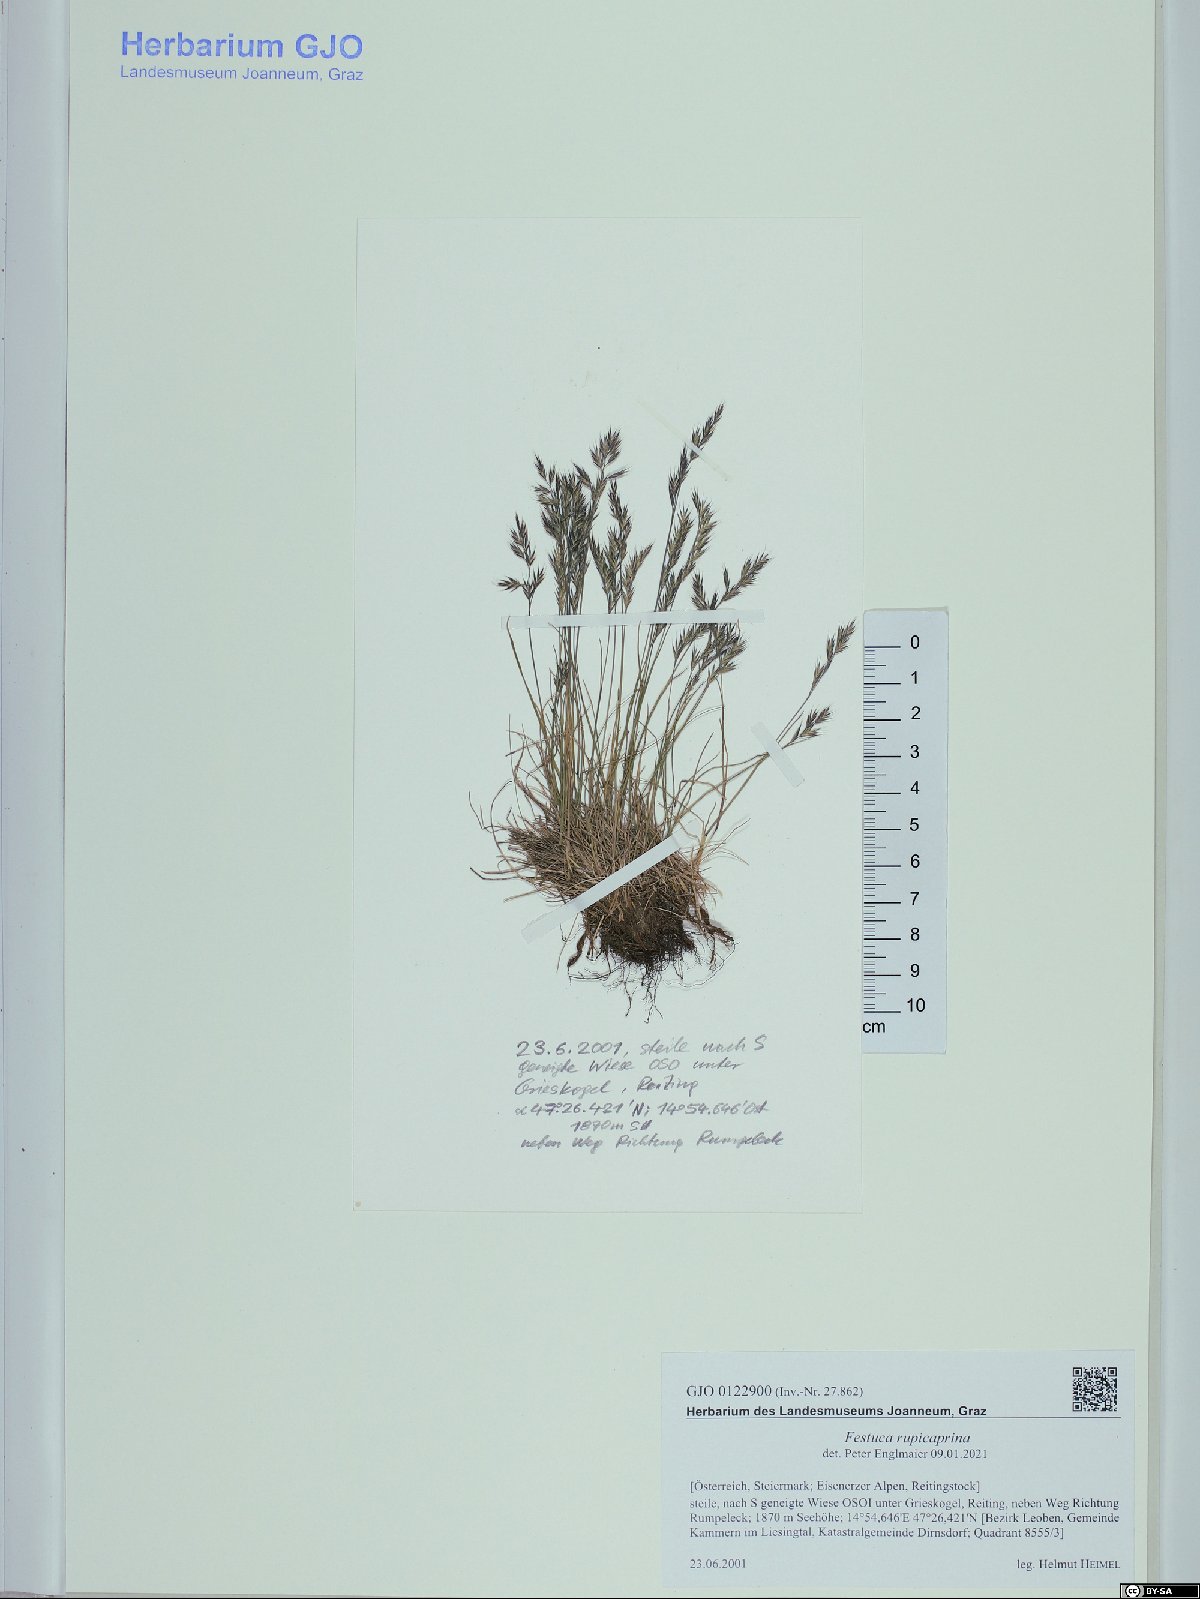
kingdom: Plantae
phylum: Tracheophyta
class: Liliopsida
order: Poales
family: Poaceae
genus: Festuca
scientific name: Festuca rupicaprina
